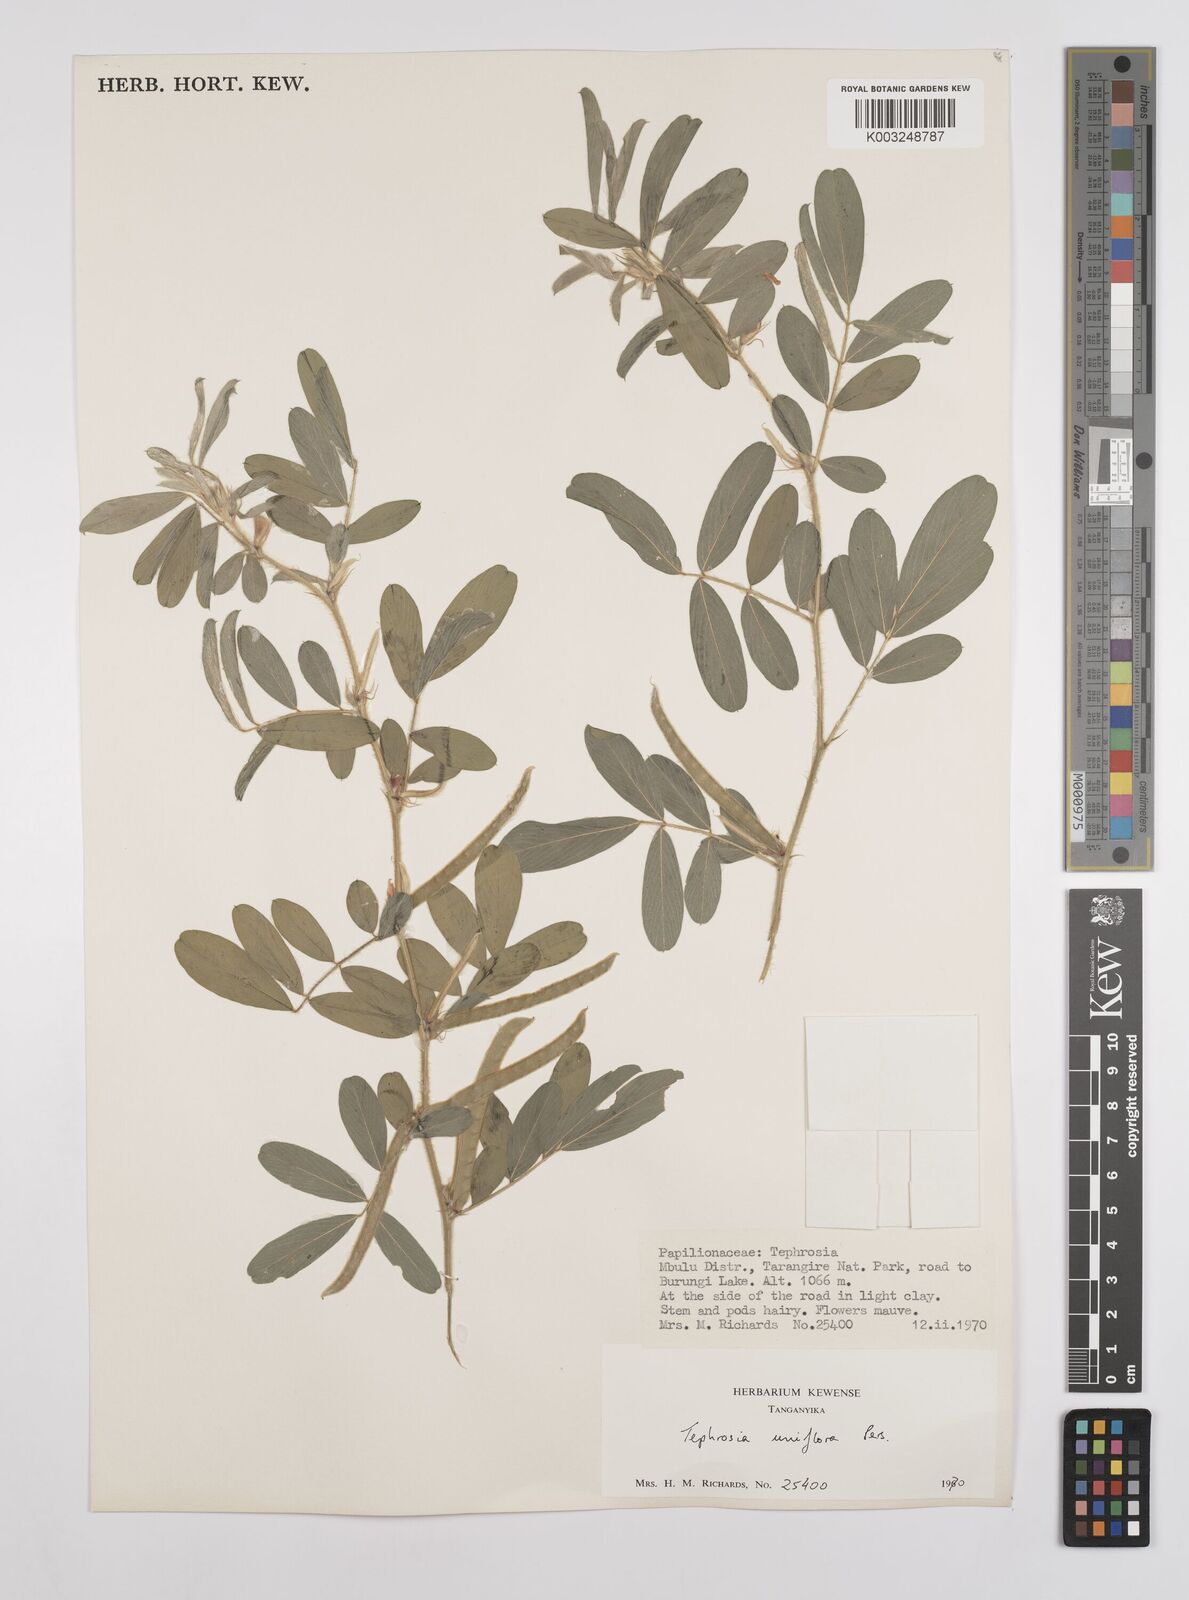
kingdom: Plantae
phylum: Tracheophyta
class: Magnoliopsida
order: Fabales
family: Fabaceae
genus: Tephrosia
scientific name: Tephrosia uniflora
